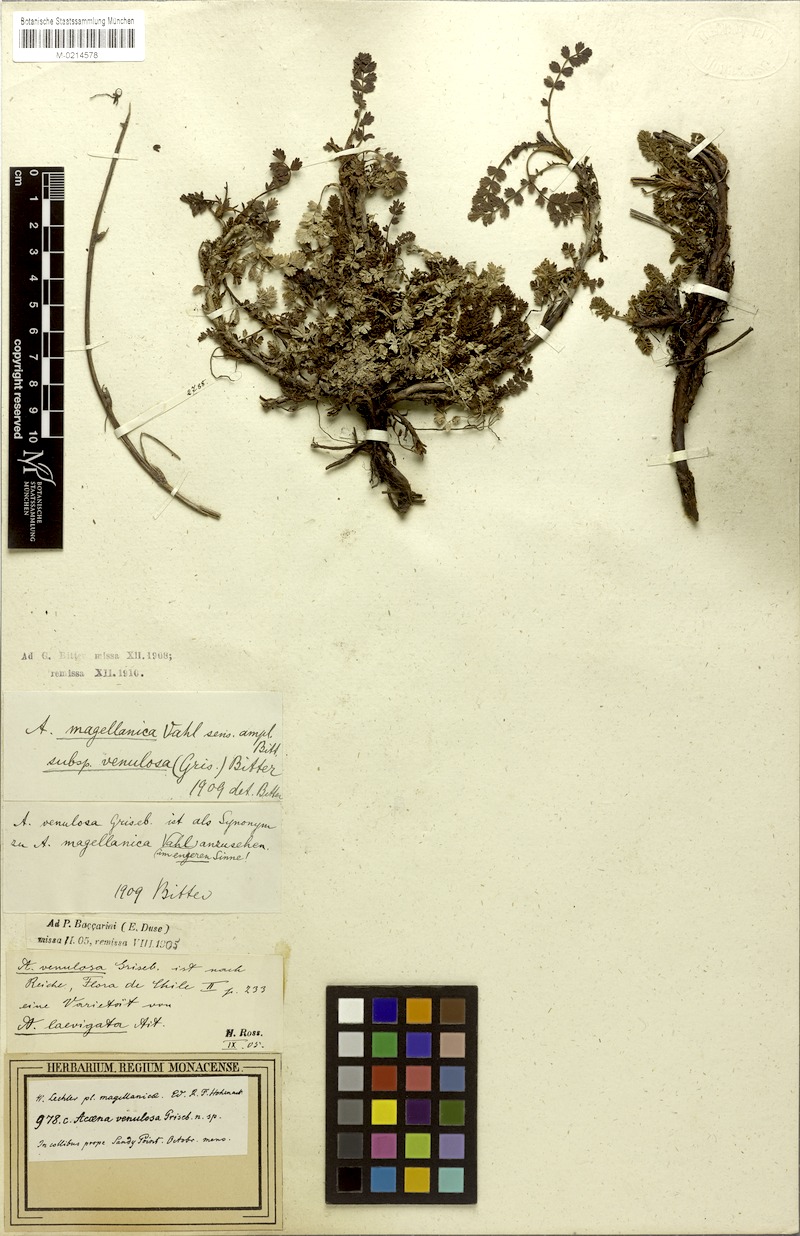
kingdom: Plantae
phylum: Tracheophyta
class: Magnoliopsida
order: Rosales
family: Rosaceae
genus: Acaena
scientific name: Acaena magellanica
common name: New zealand burr
